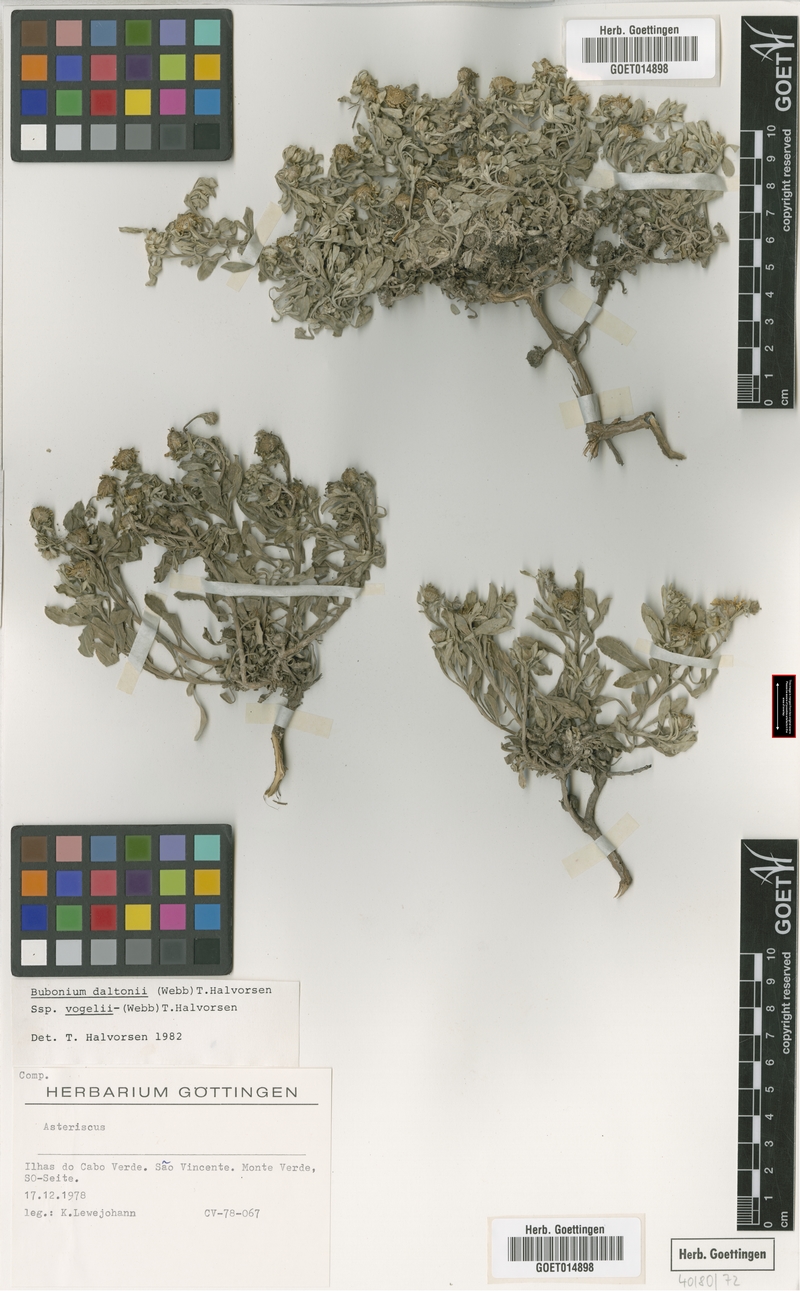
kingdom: Plantae
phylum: Tracheophyta
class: Magnoliopsida
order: Asterales
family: Asteraceae
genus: Asteriscus
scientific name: Asteriscus daltonii
